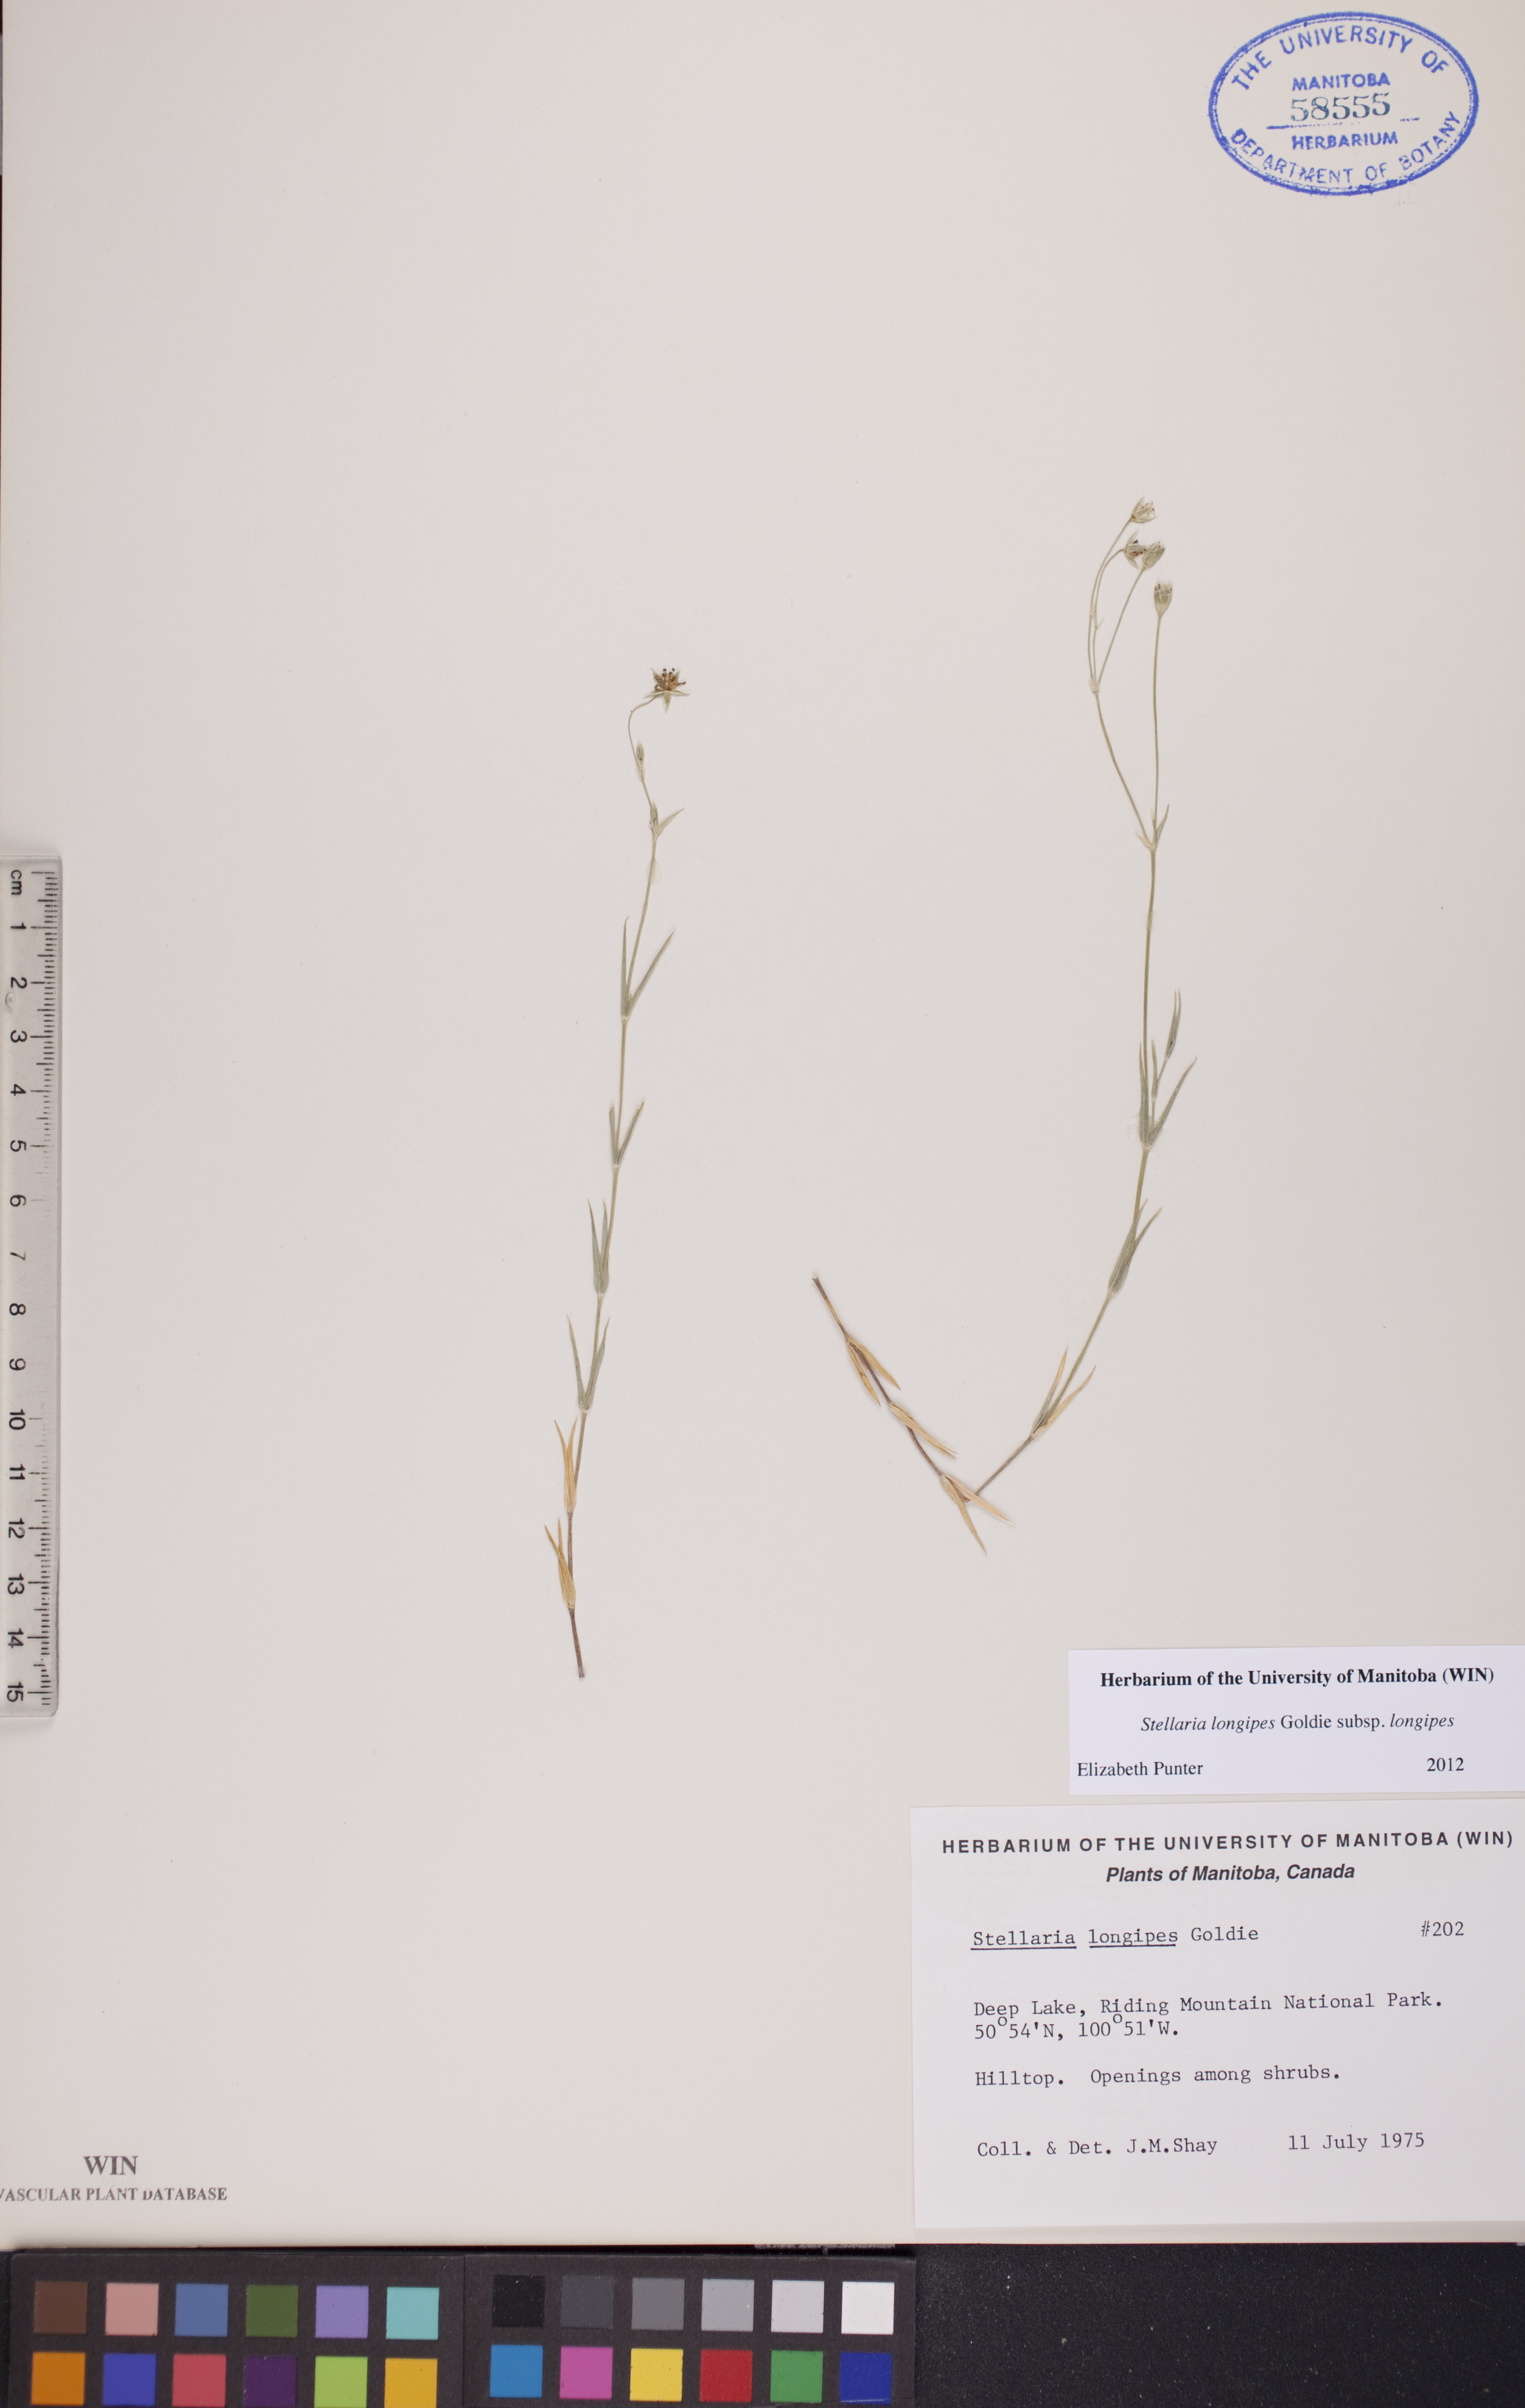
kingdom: Plantae
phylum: Tracheophyta
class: Magnoliopsida
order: Caryophyllales
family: Caryophyllaceae
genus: Stellaria
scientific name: Stellaria longipes
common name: Goldie's starwort
